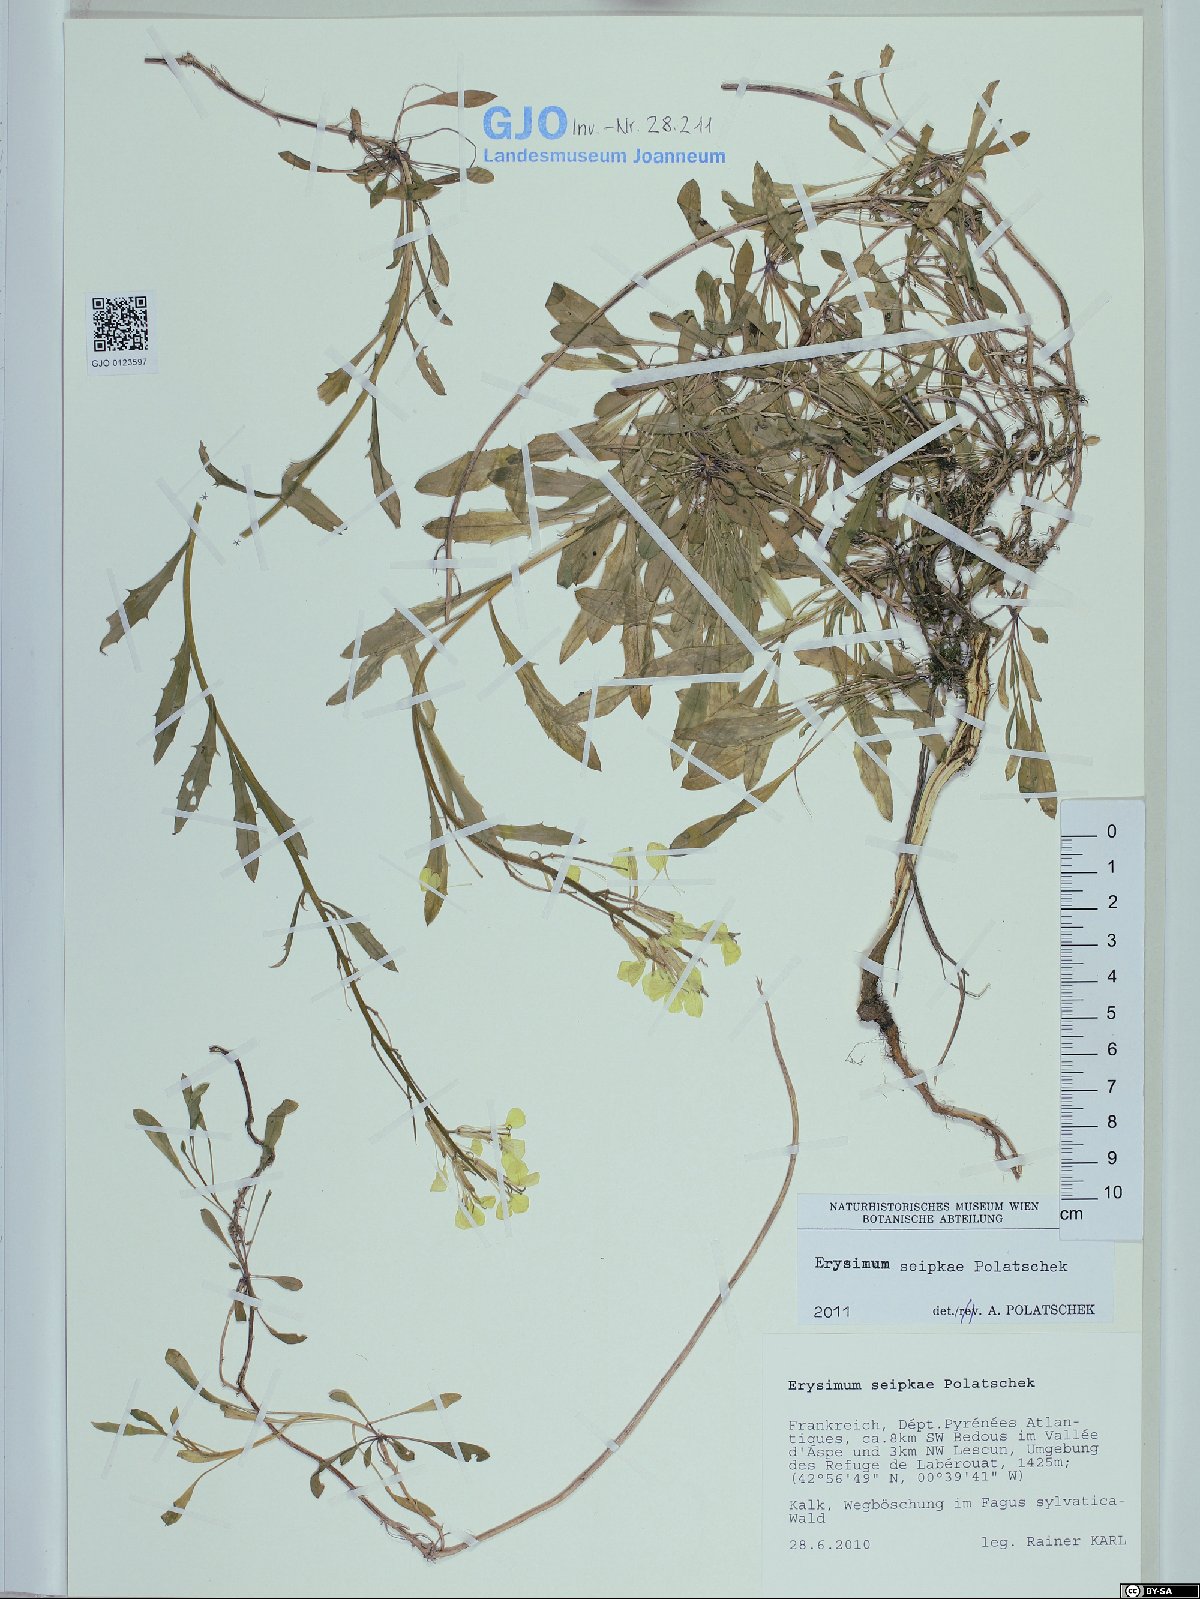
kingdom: Plantae
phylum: Tracheophyta
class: Magnoliopsida
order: Brassicales
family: Brassicaceae
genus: Erysimum
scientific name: Erysimum seipkae
